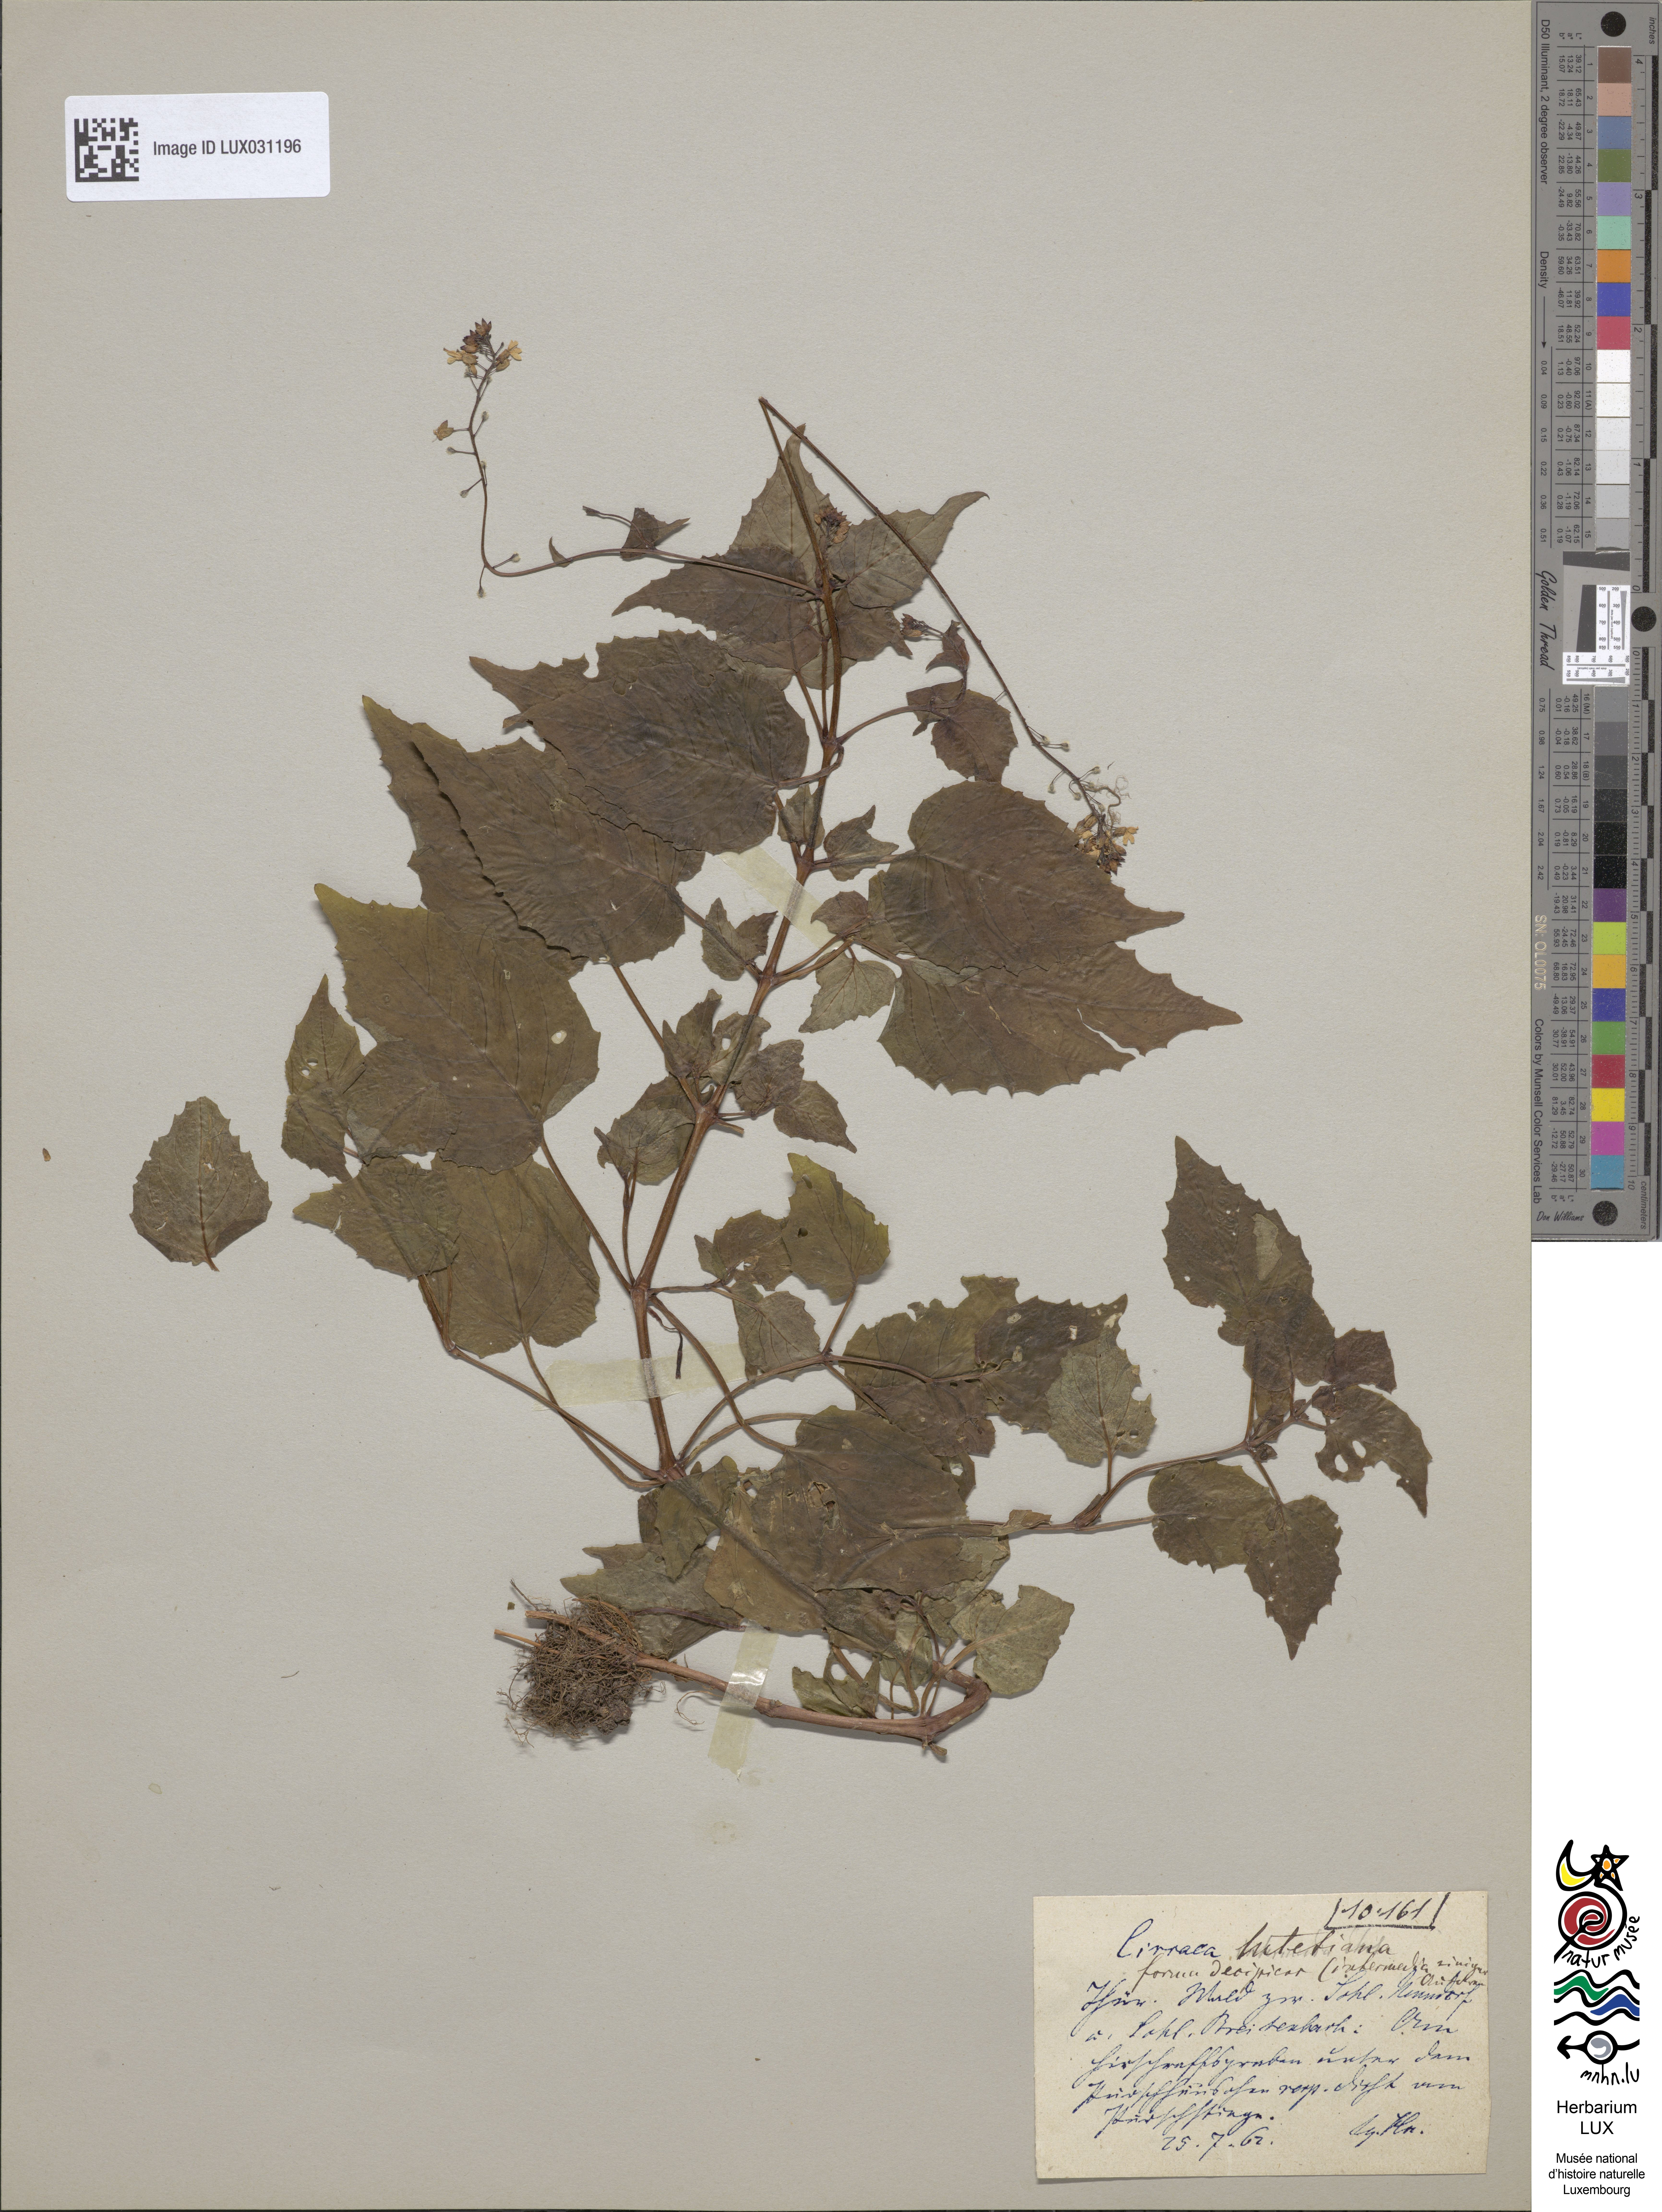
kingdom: Plantae
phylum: Tracheophyta
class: Magnoliopsida
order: Myrtales
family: Onagraceae
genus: Circaea
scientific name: Circaea lutetiana
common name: Enchanter's-nightshade
